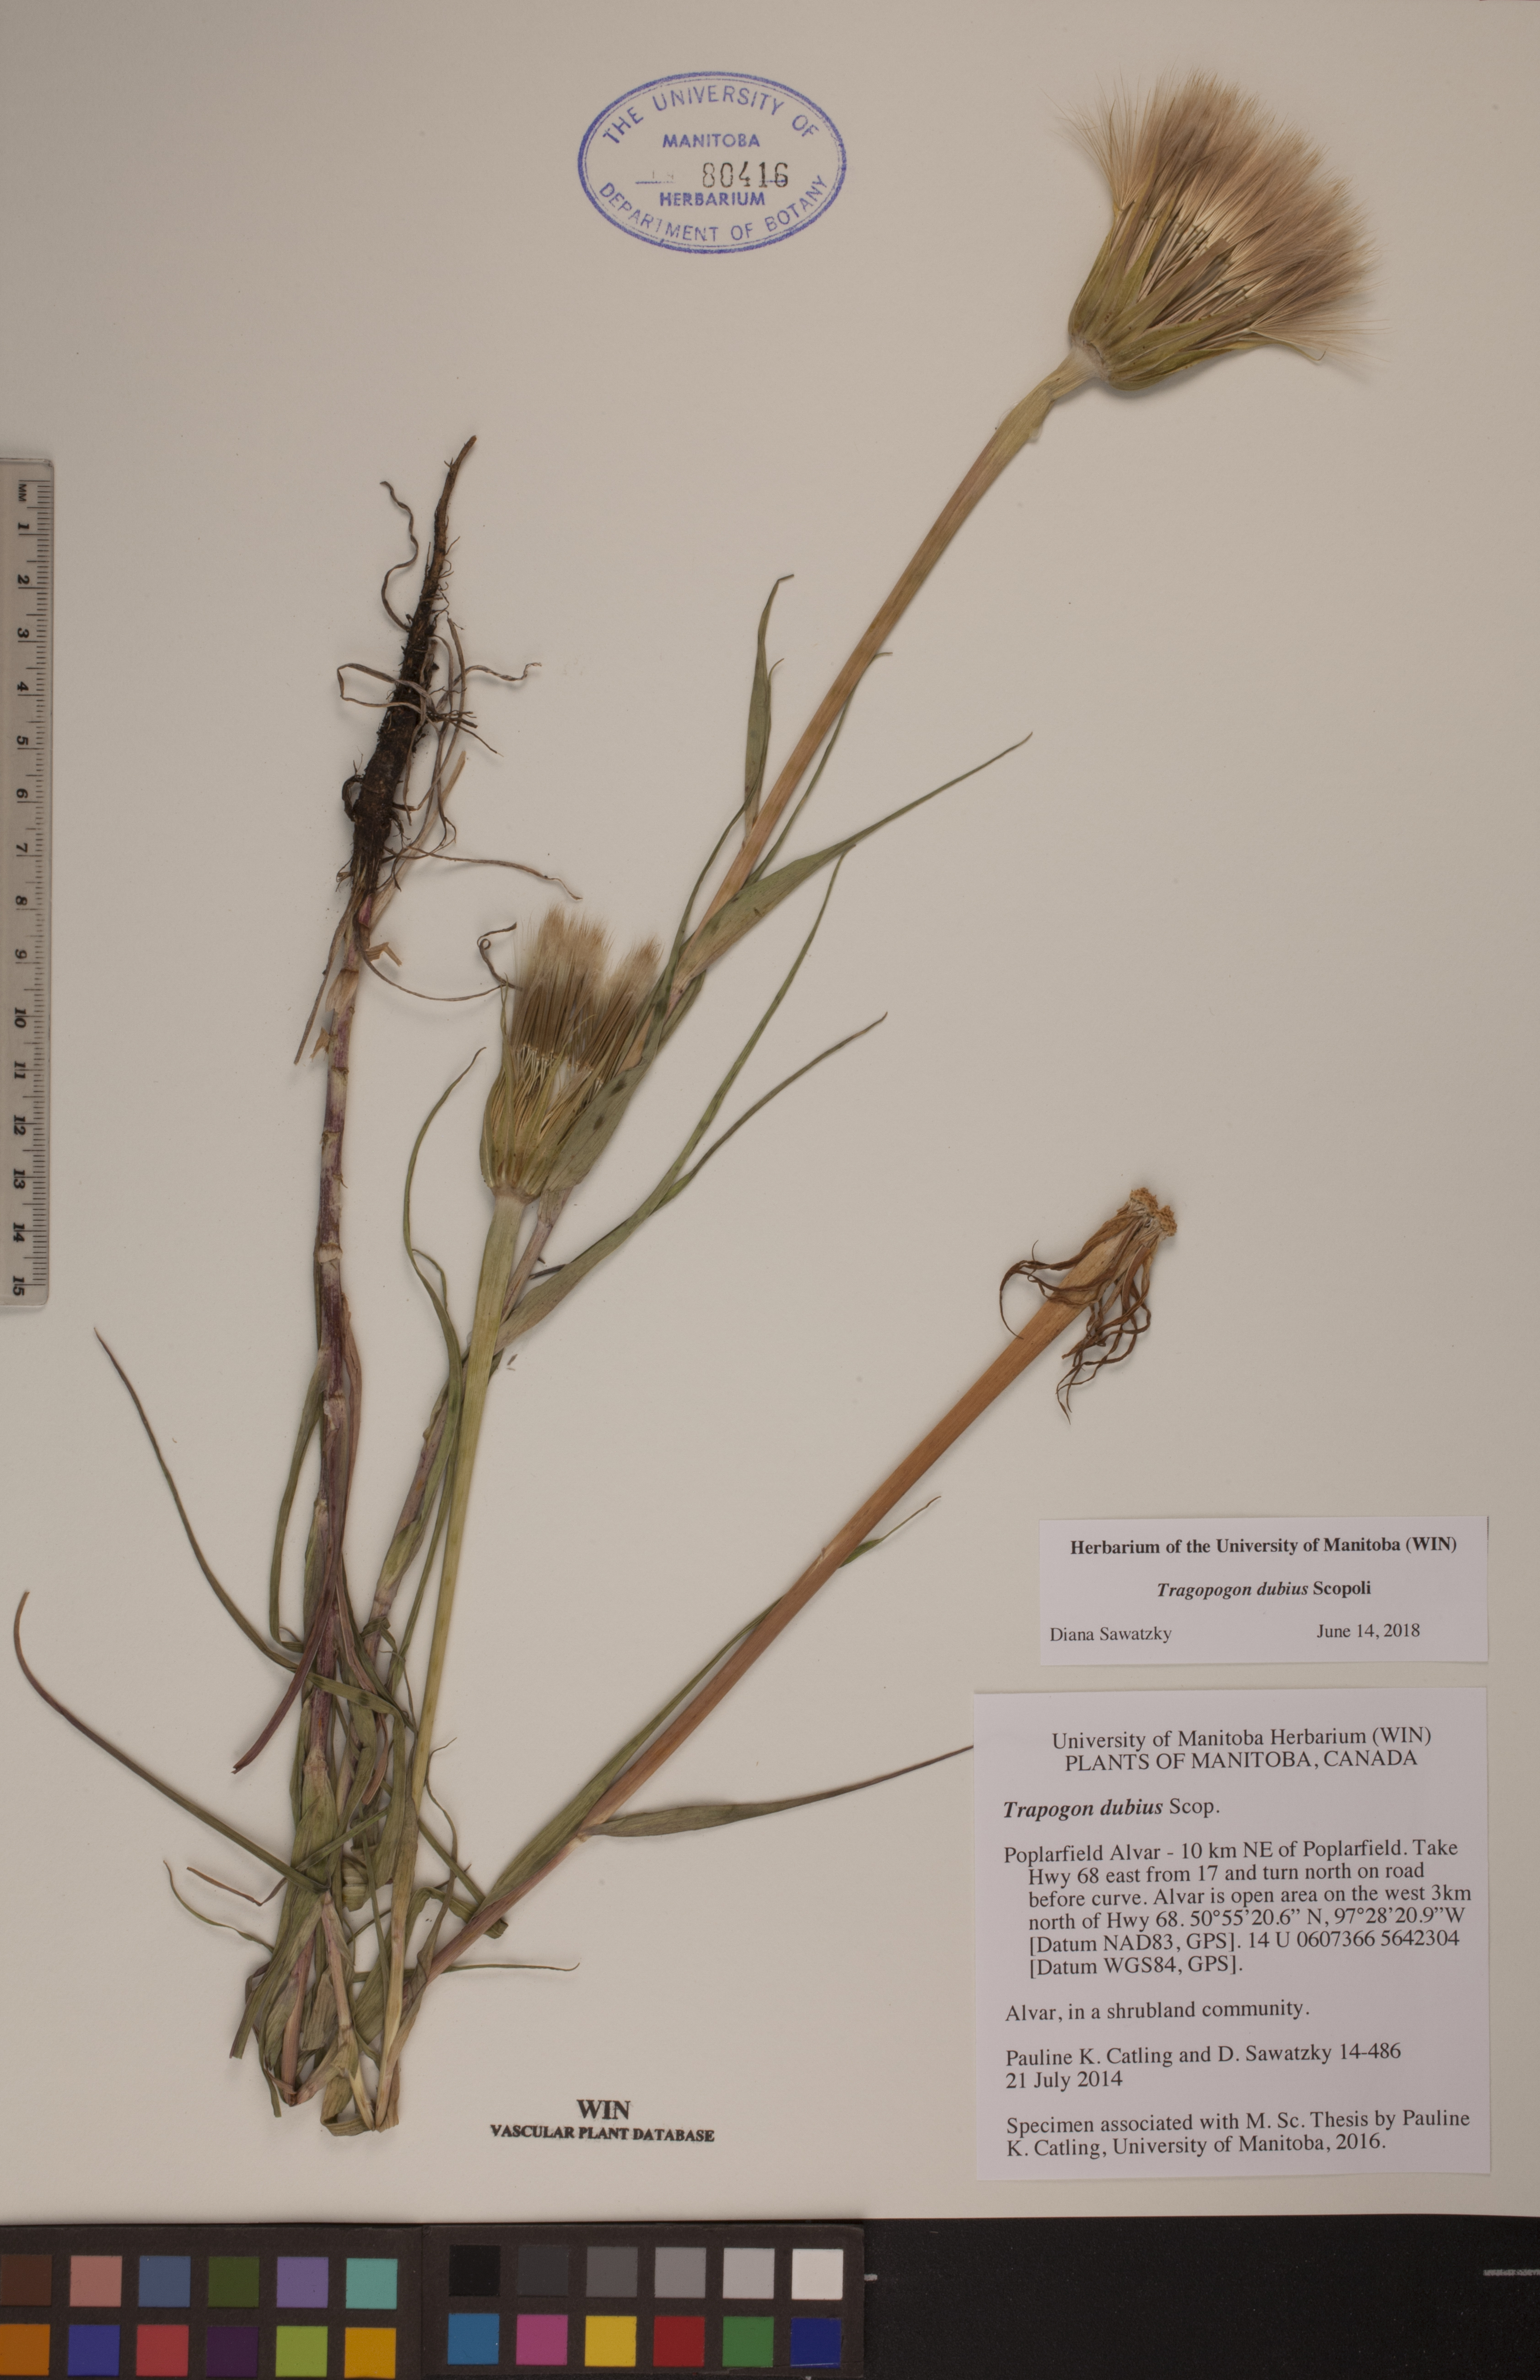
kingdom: Plantae
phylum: Tracheophyta
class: Magnoliopsida
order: Asterales
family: Asteraceae
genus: Tragopogon
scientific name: Tragopogon dubius
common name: Yellow salsify
